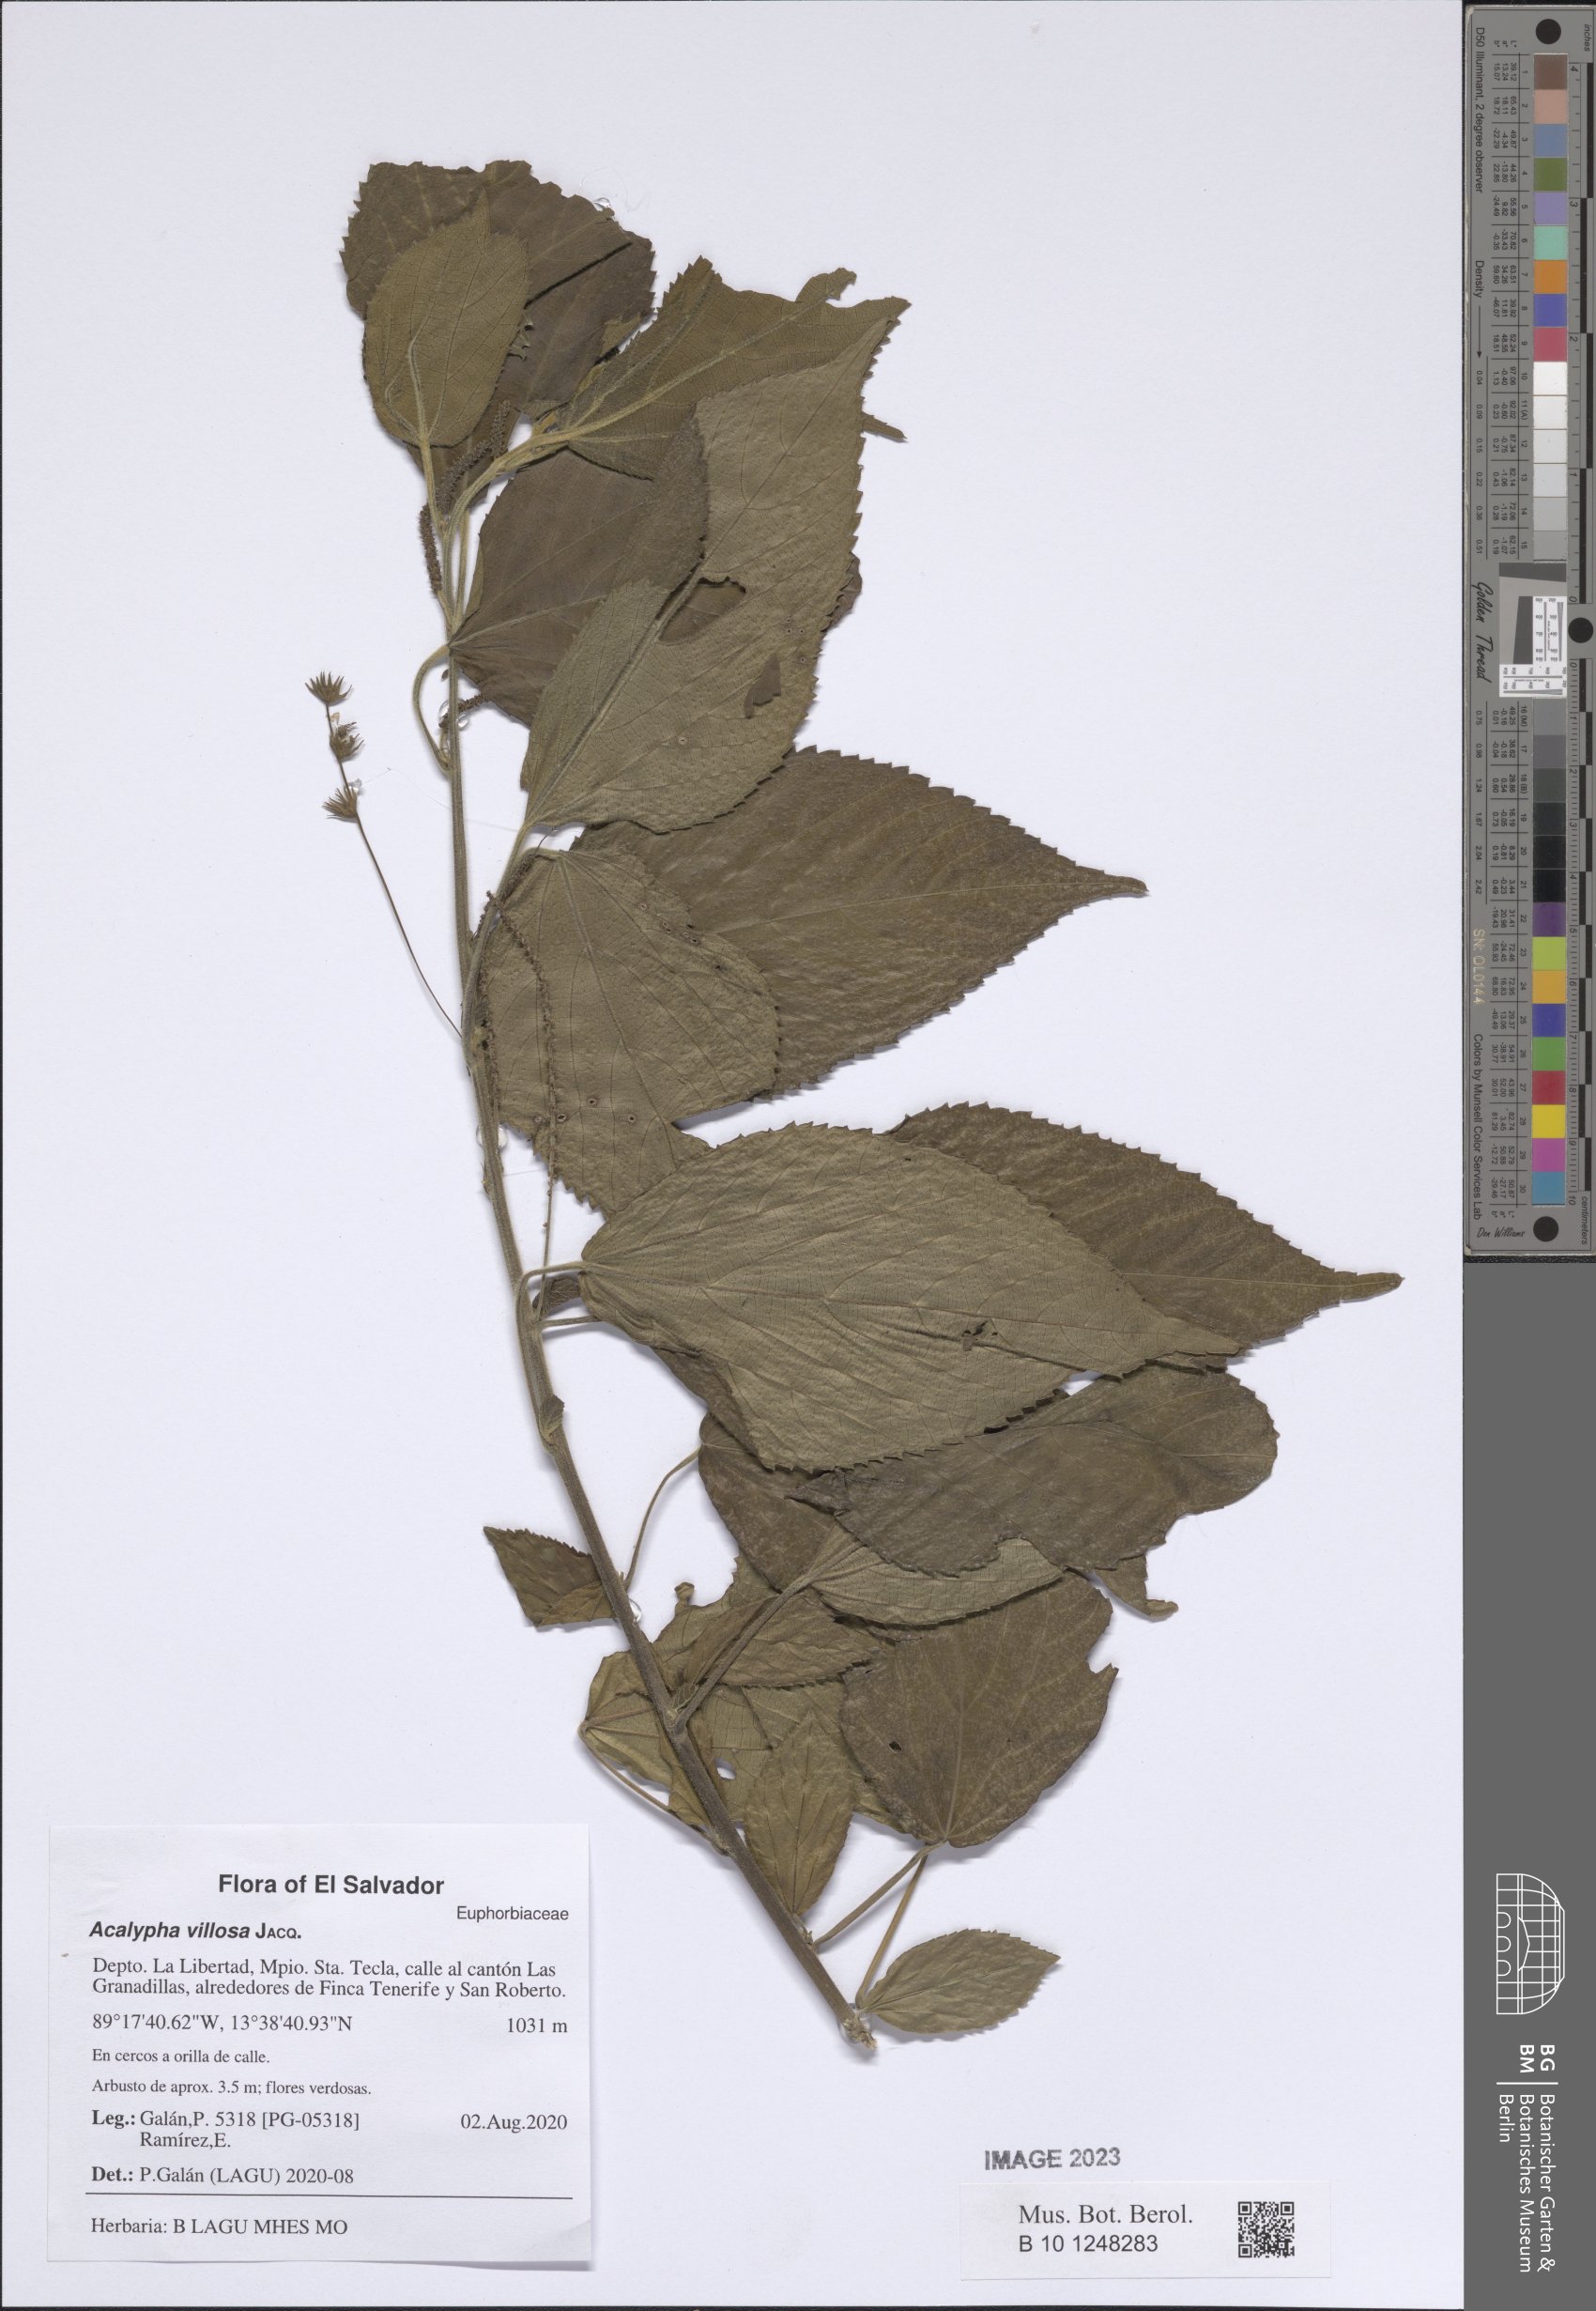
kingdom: Plantae
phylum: Tracheophyta
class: Magnoliopsida
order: Malpighiales
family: Euphorbiaceae
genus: Acalypha
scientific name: Acalypha villosa
